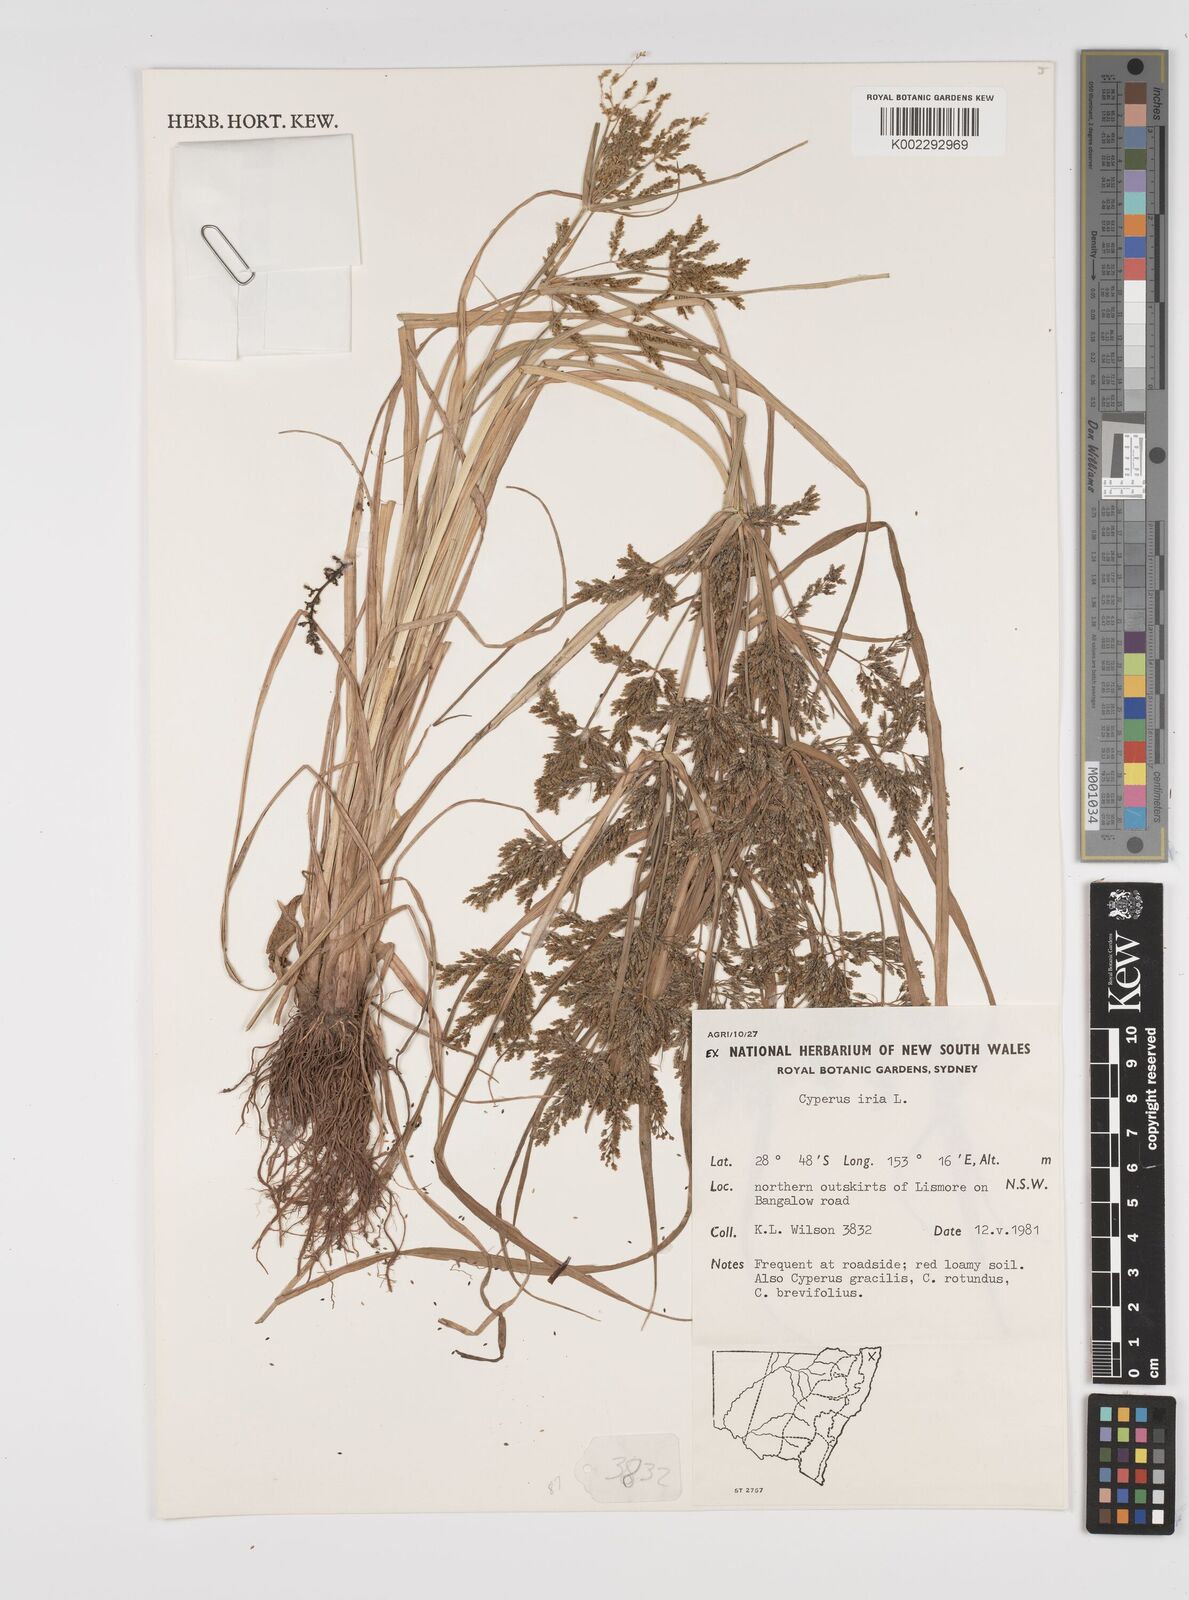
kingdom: Plantae
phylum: Tracheophyta
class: Liliopsida
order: Poales
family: Cyperaceae
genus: Cyperus
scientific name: Cyperus iria
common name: Ricefield flatsedge
